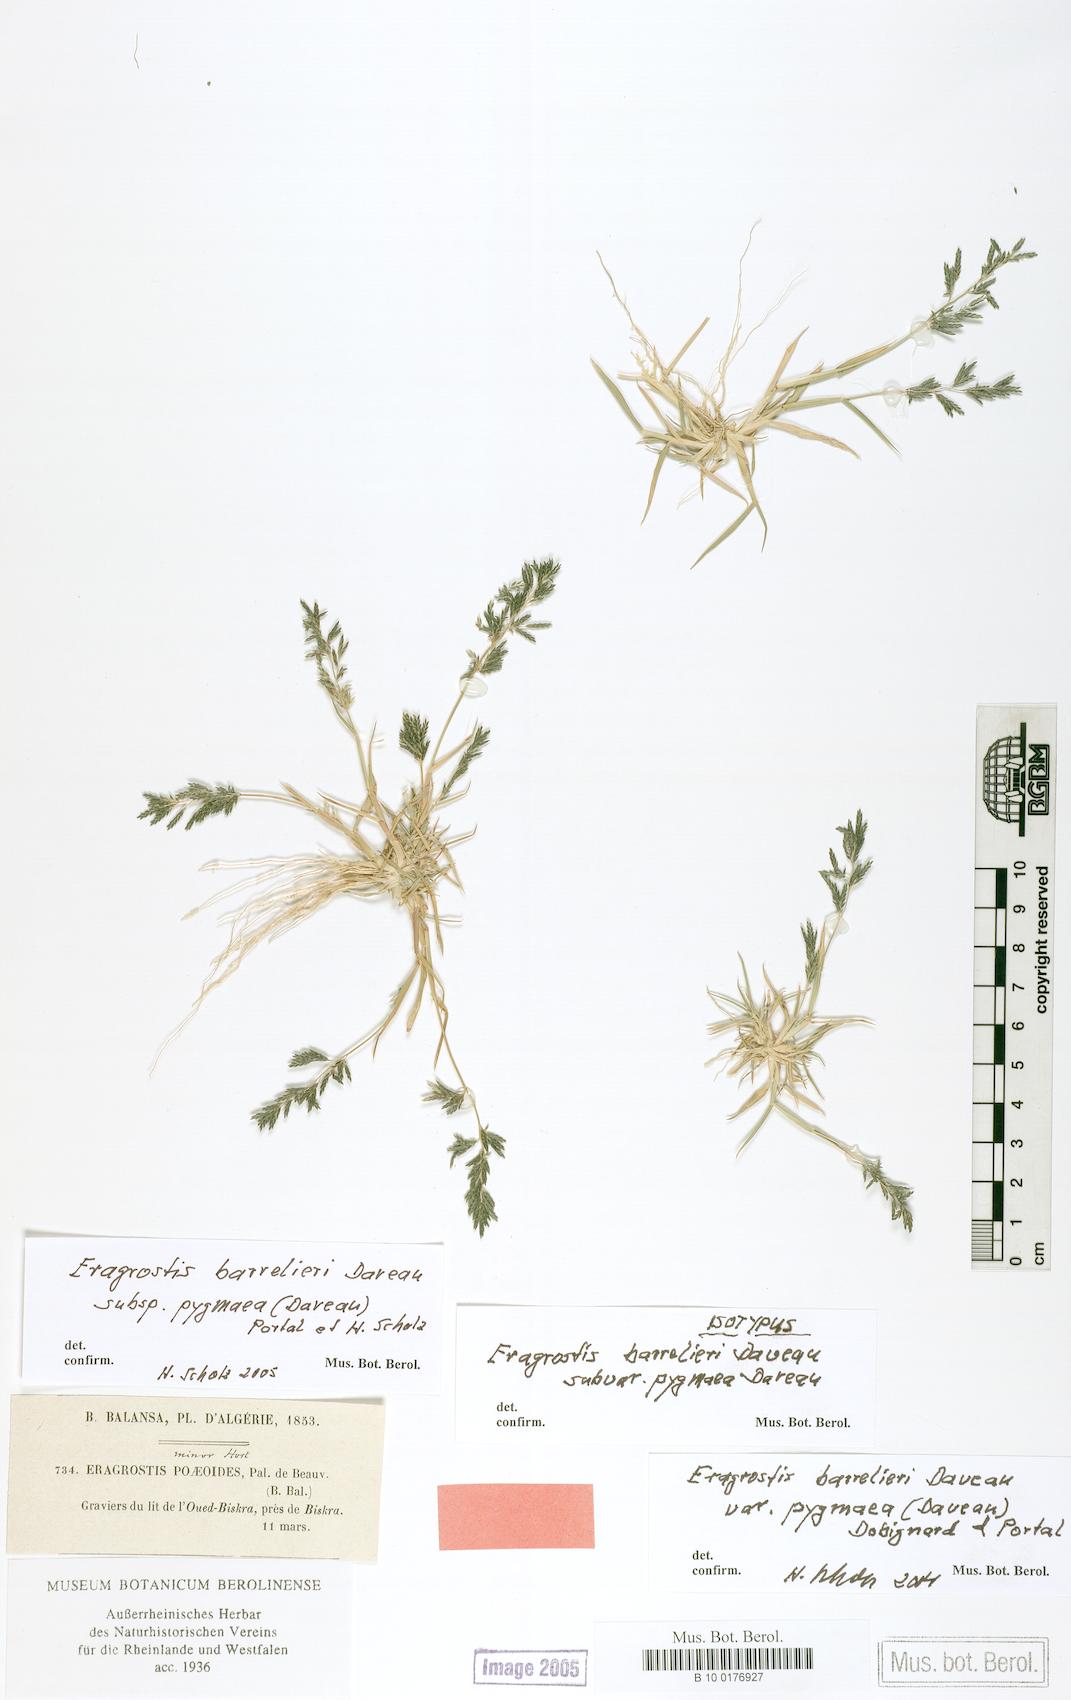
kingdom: Plantae
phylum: Tracheophyta
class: Liliopsida
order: Poales
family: Poaceae
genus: Eragrostis
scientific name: Eragrostis barrelieri
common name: Mediterranean lovegrass
